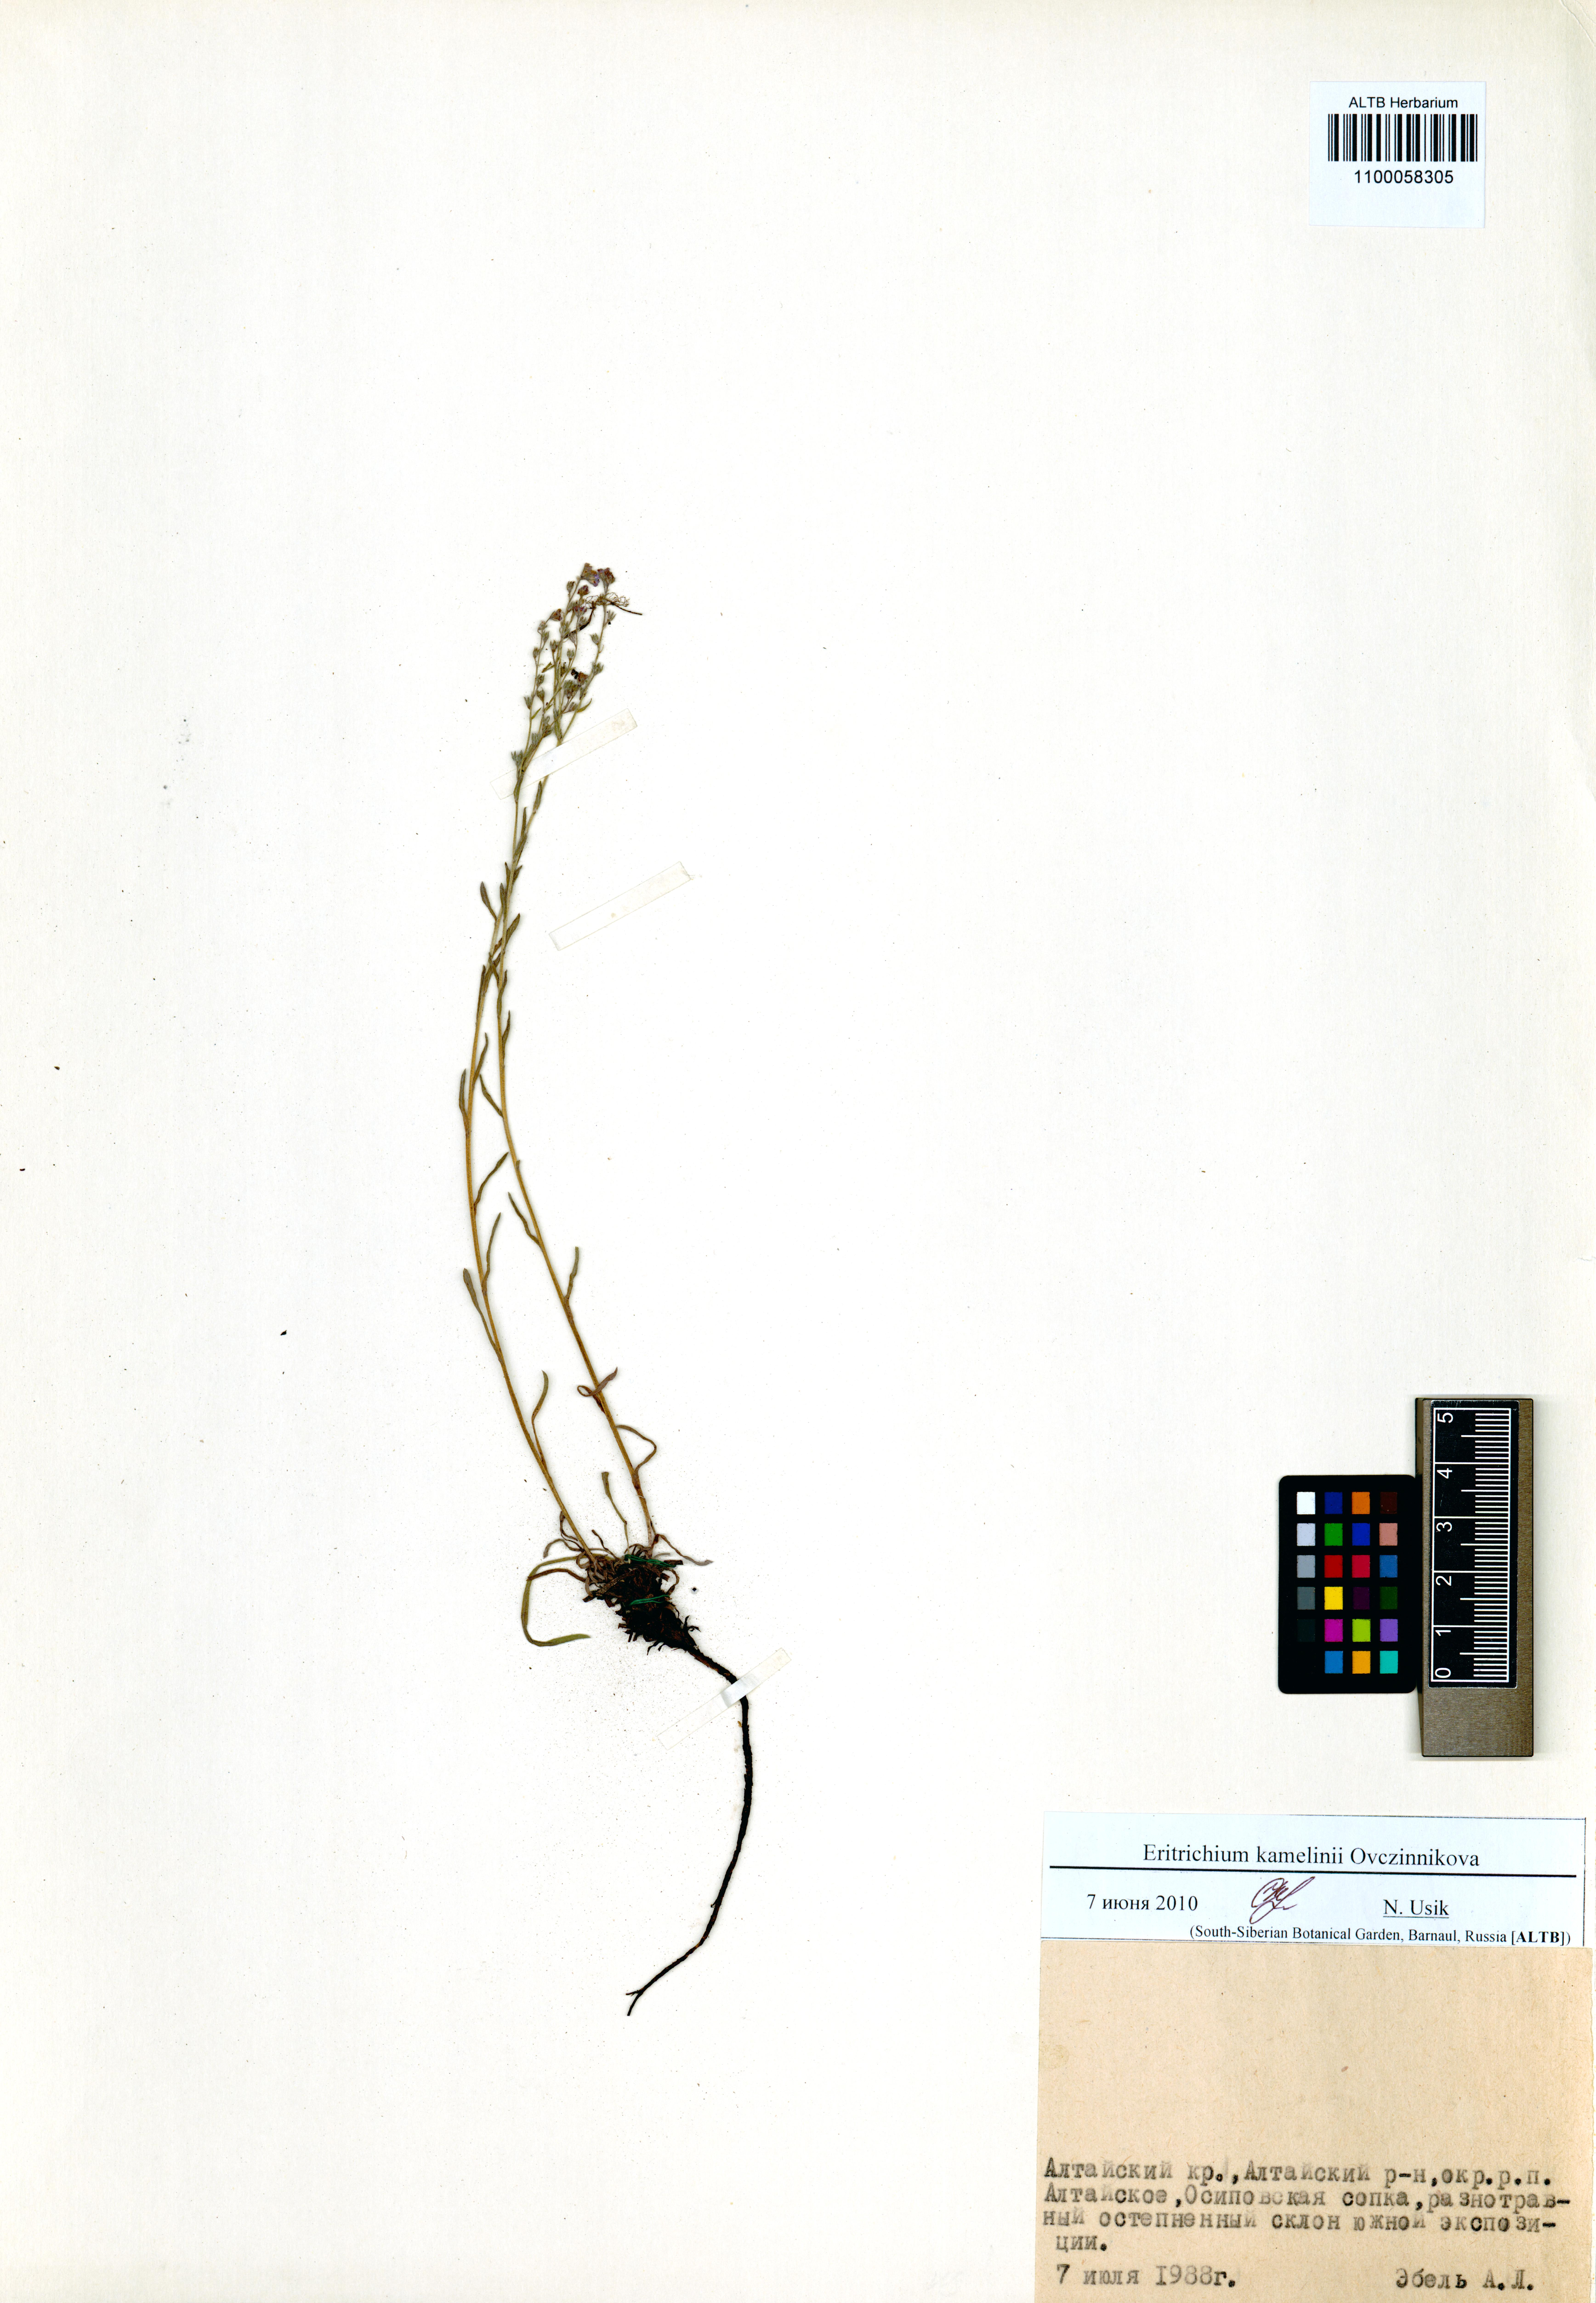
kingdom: Plantae
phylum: Tracheophyta
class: Magnoliopsida
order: Boraginales
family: Boraginaceae
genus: Eritrichium
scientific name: Eritrichium kamelinii
